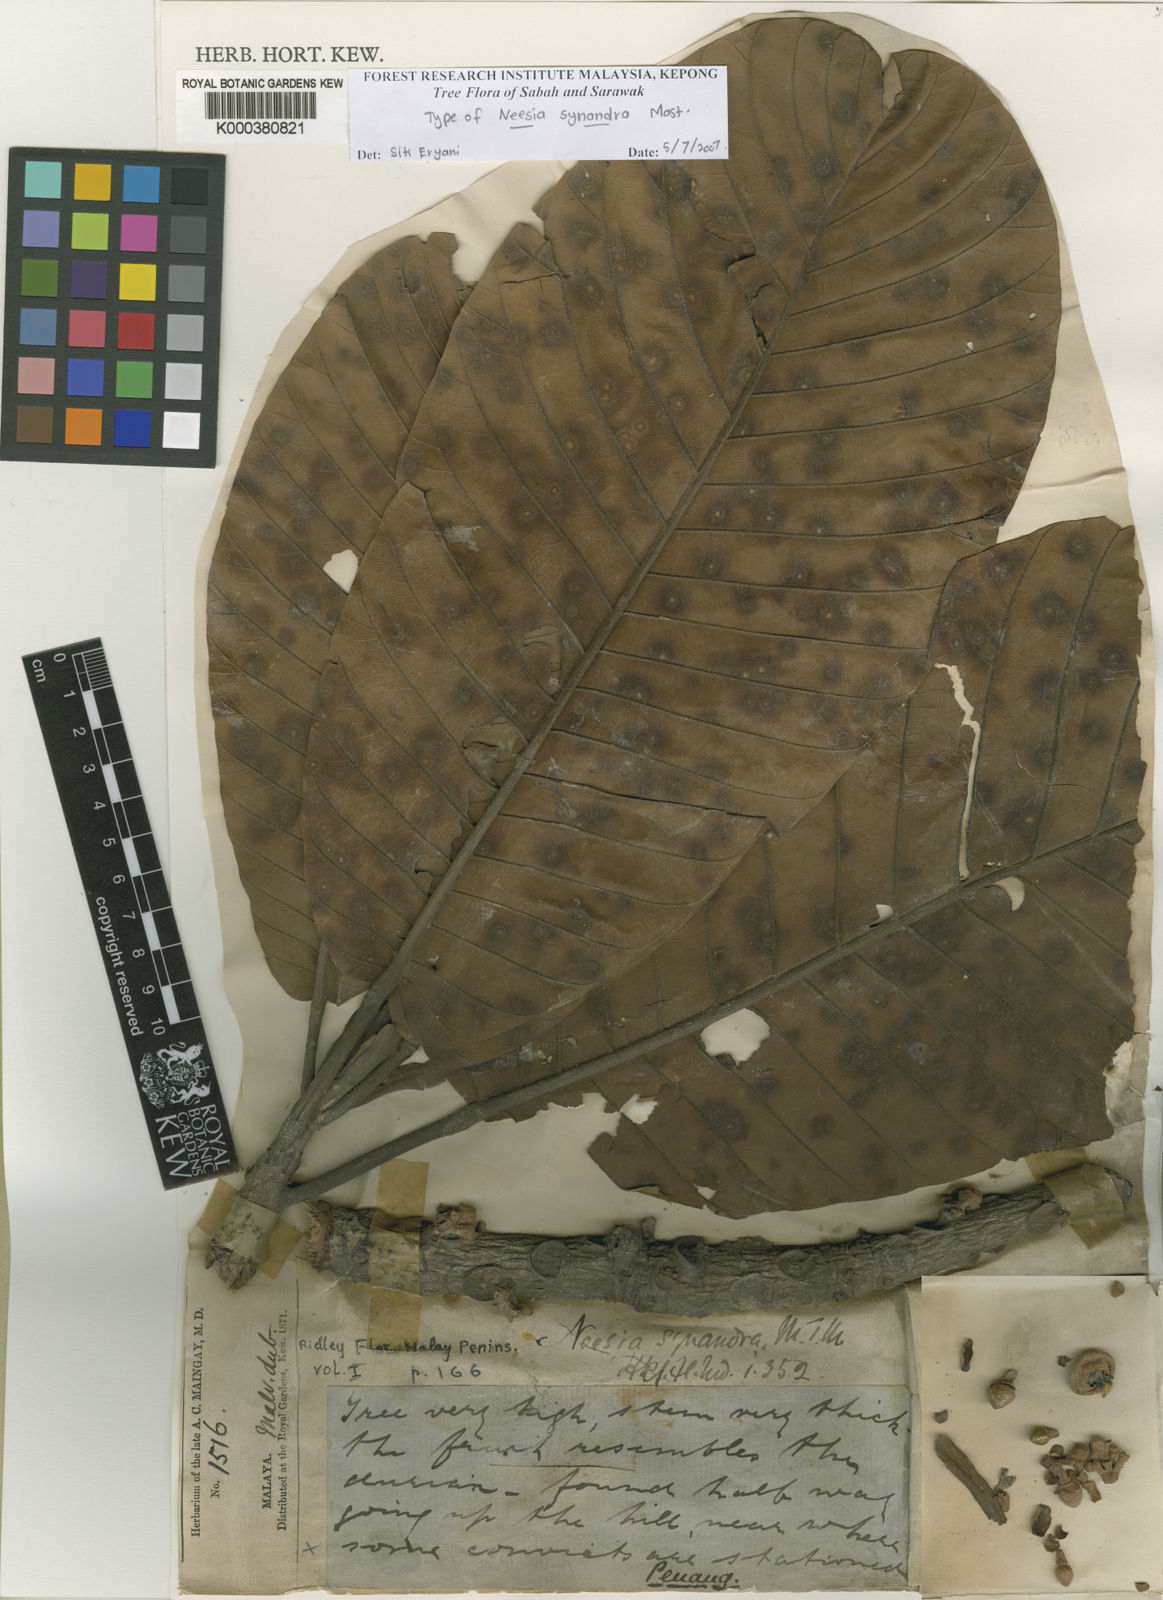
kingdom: Plantae
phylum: Tracheophyta
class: Magnoliopsida
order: Malvales
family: Malvaceae
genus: Neesia
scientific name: Neesia synandra
